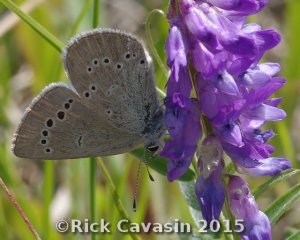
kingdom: Animalia
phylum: Arthropoda
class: Insecta
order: Lepidoptera
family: Lycaenidae
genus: Glaucopsyche
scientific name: Glaucopsyche lygdamus
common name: Silvery Blue
